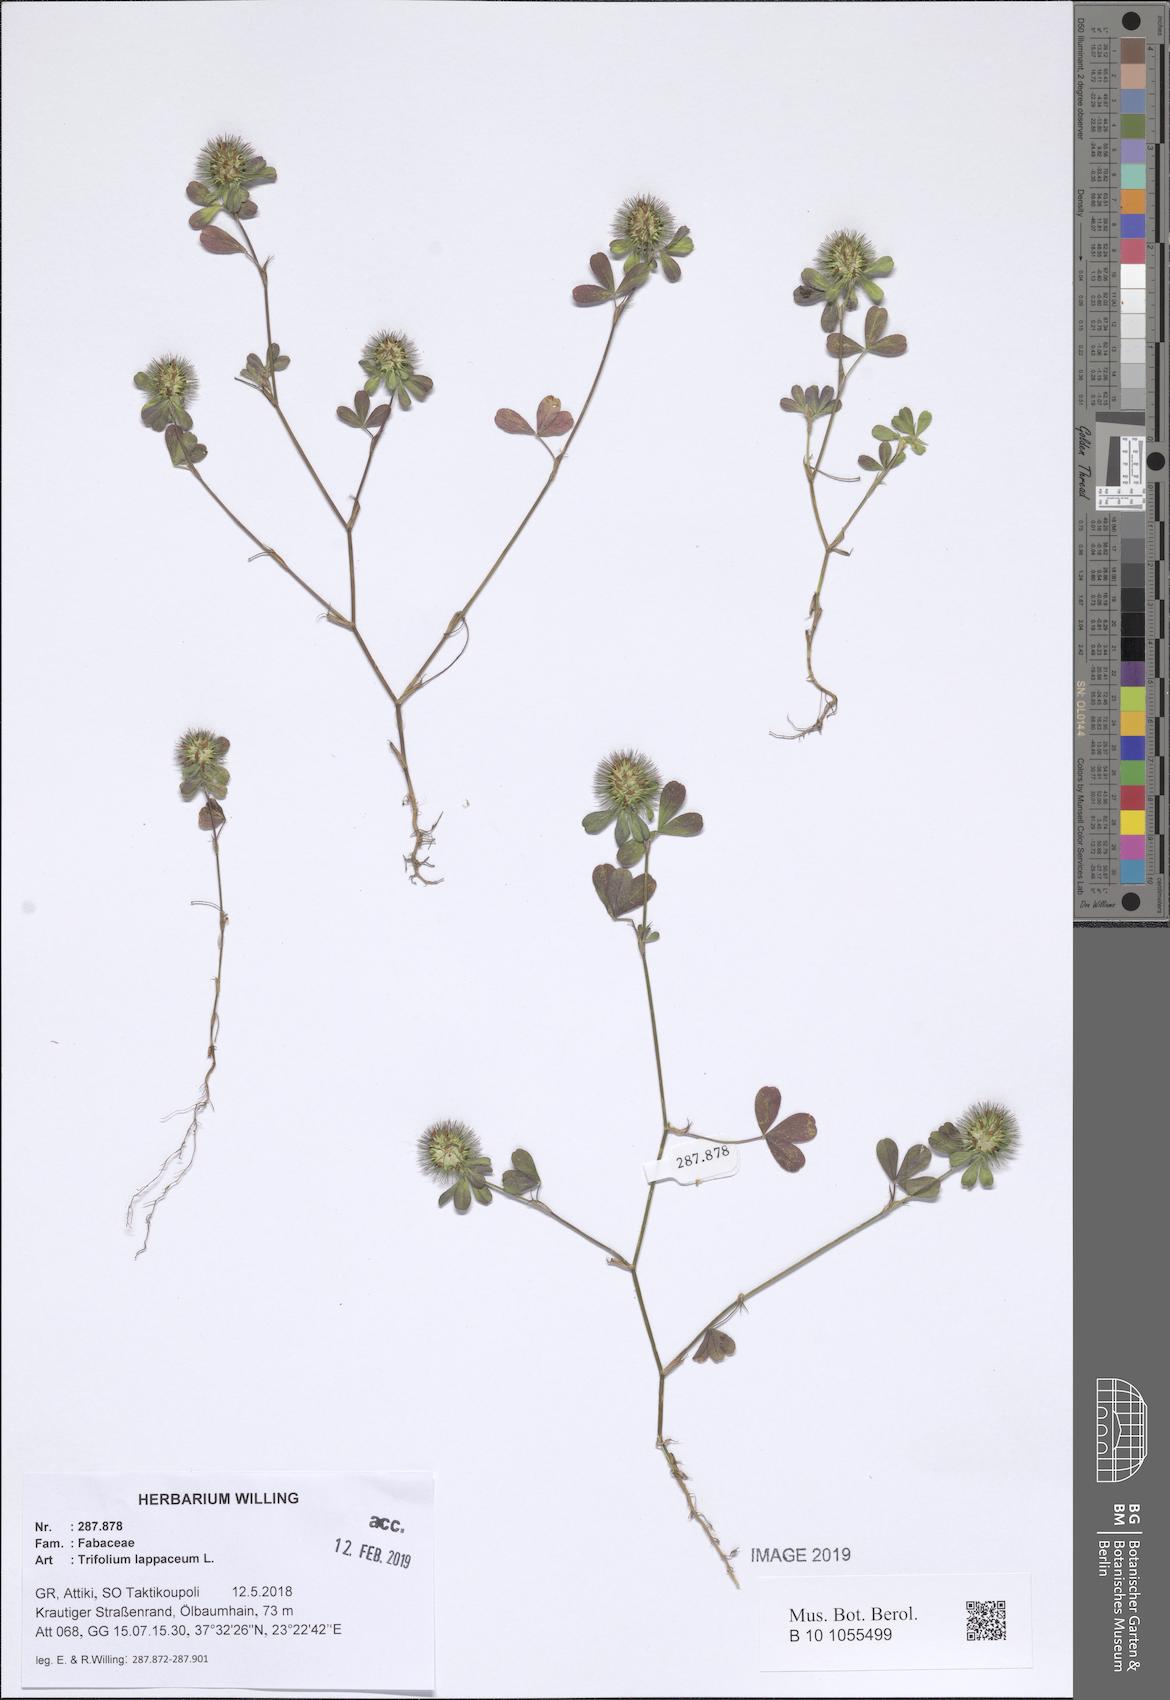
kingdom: Plantae
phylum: Tracheophyta
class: Magnoliopsida
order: Fabales
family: Fabaceae
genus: Trifolium
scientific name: Trifolium lappaceum
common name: Bur clover
